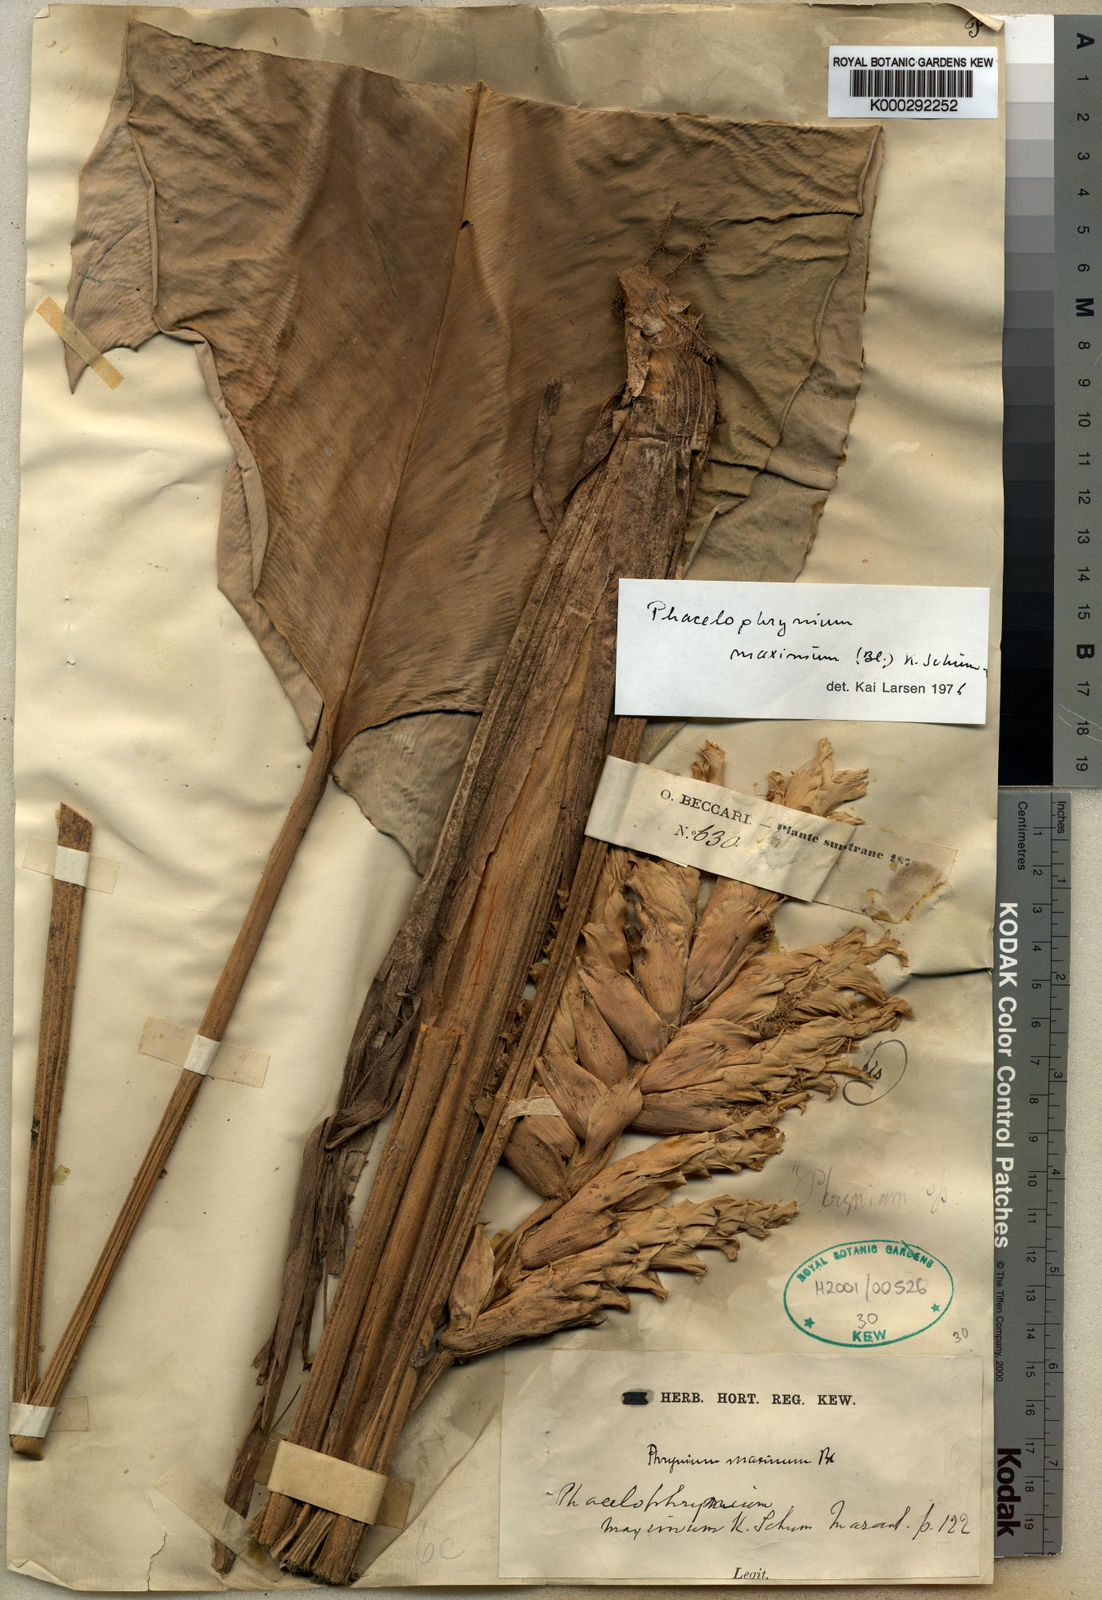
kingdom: Plantae
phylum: Tracheophyta
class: Liliopsida
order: Zingiberales
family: Marantaceae
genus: Phrynium
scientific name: Phrynium maximum
